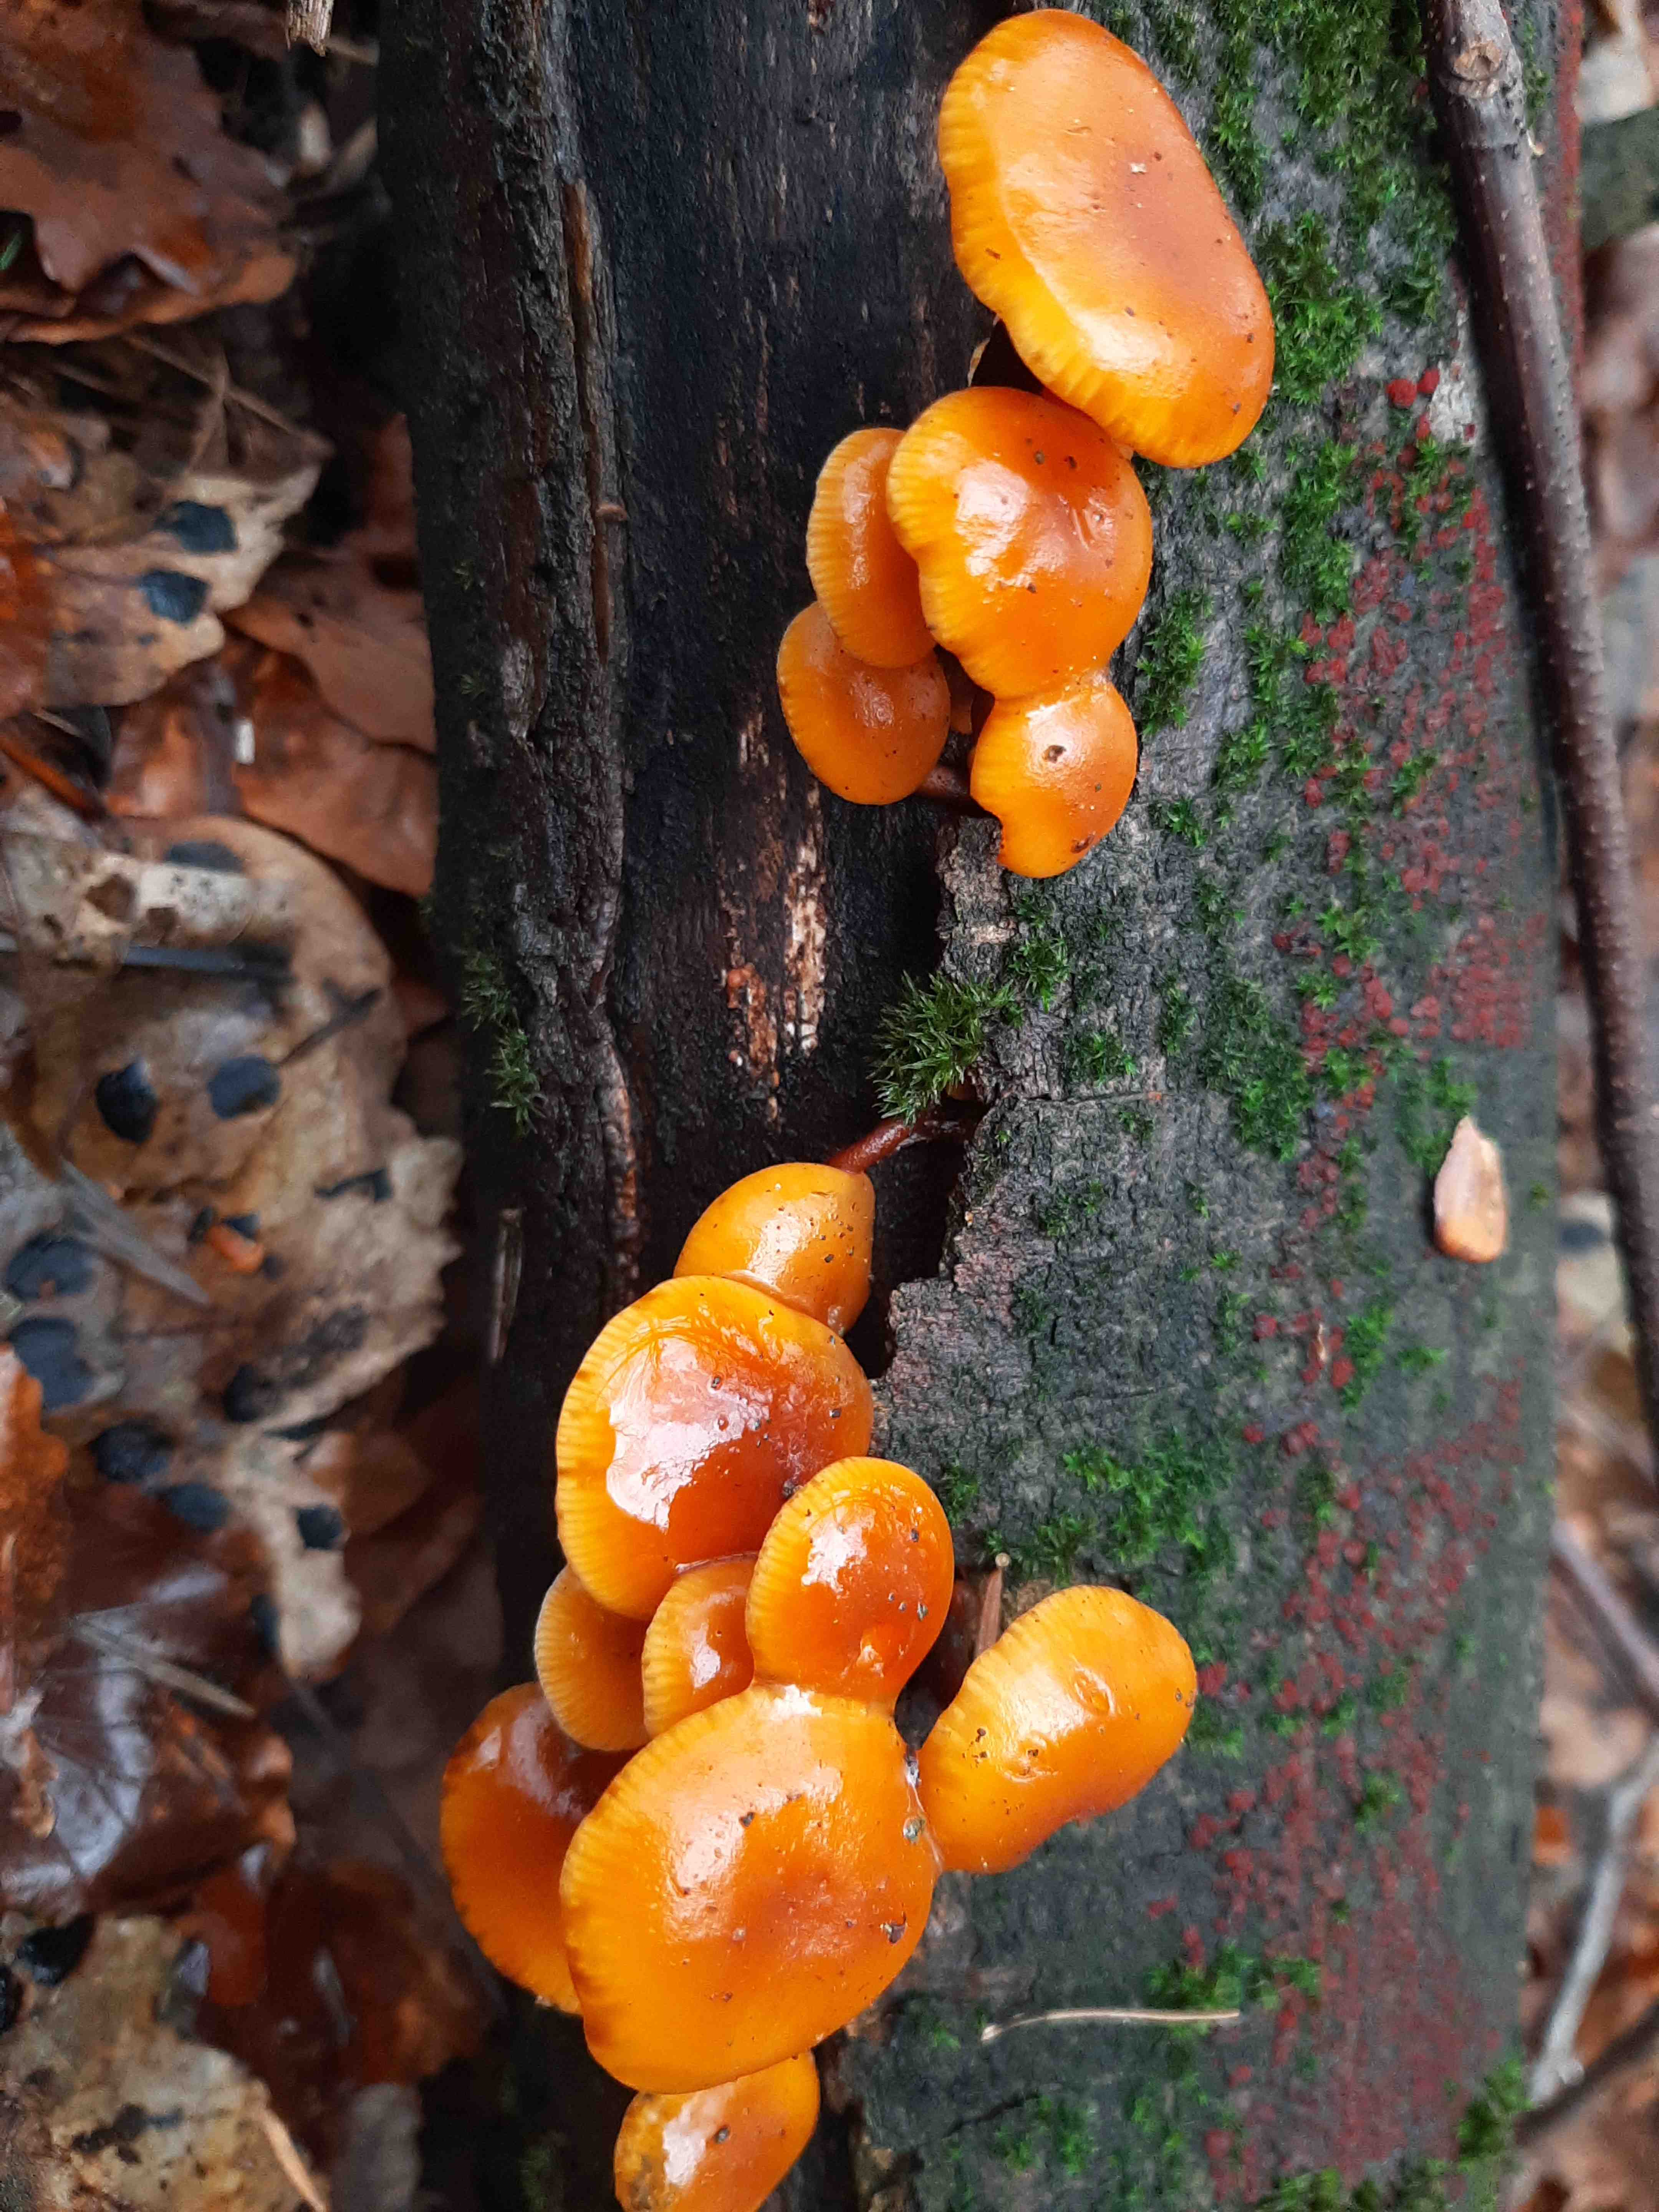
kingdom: Fungi
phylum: Basidiomycota
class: Agaricomycetes
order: Agaricales
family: Physalacriaceae
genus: Flammulina
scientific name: Flammulina
